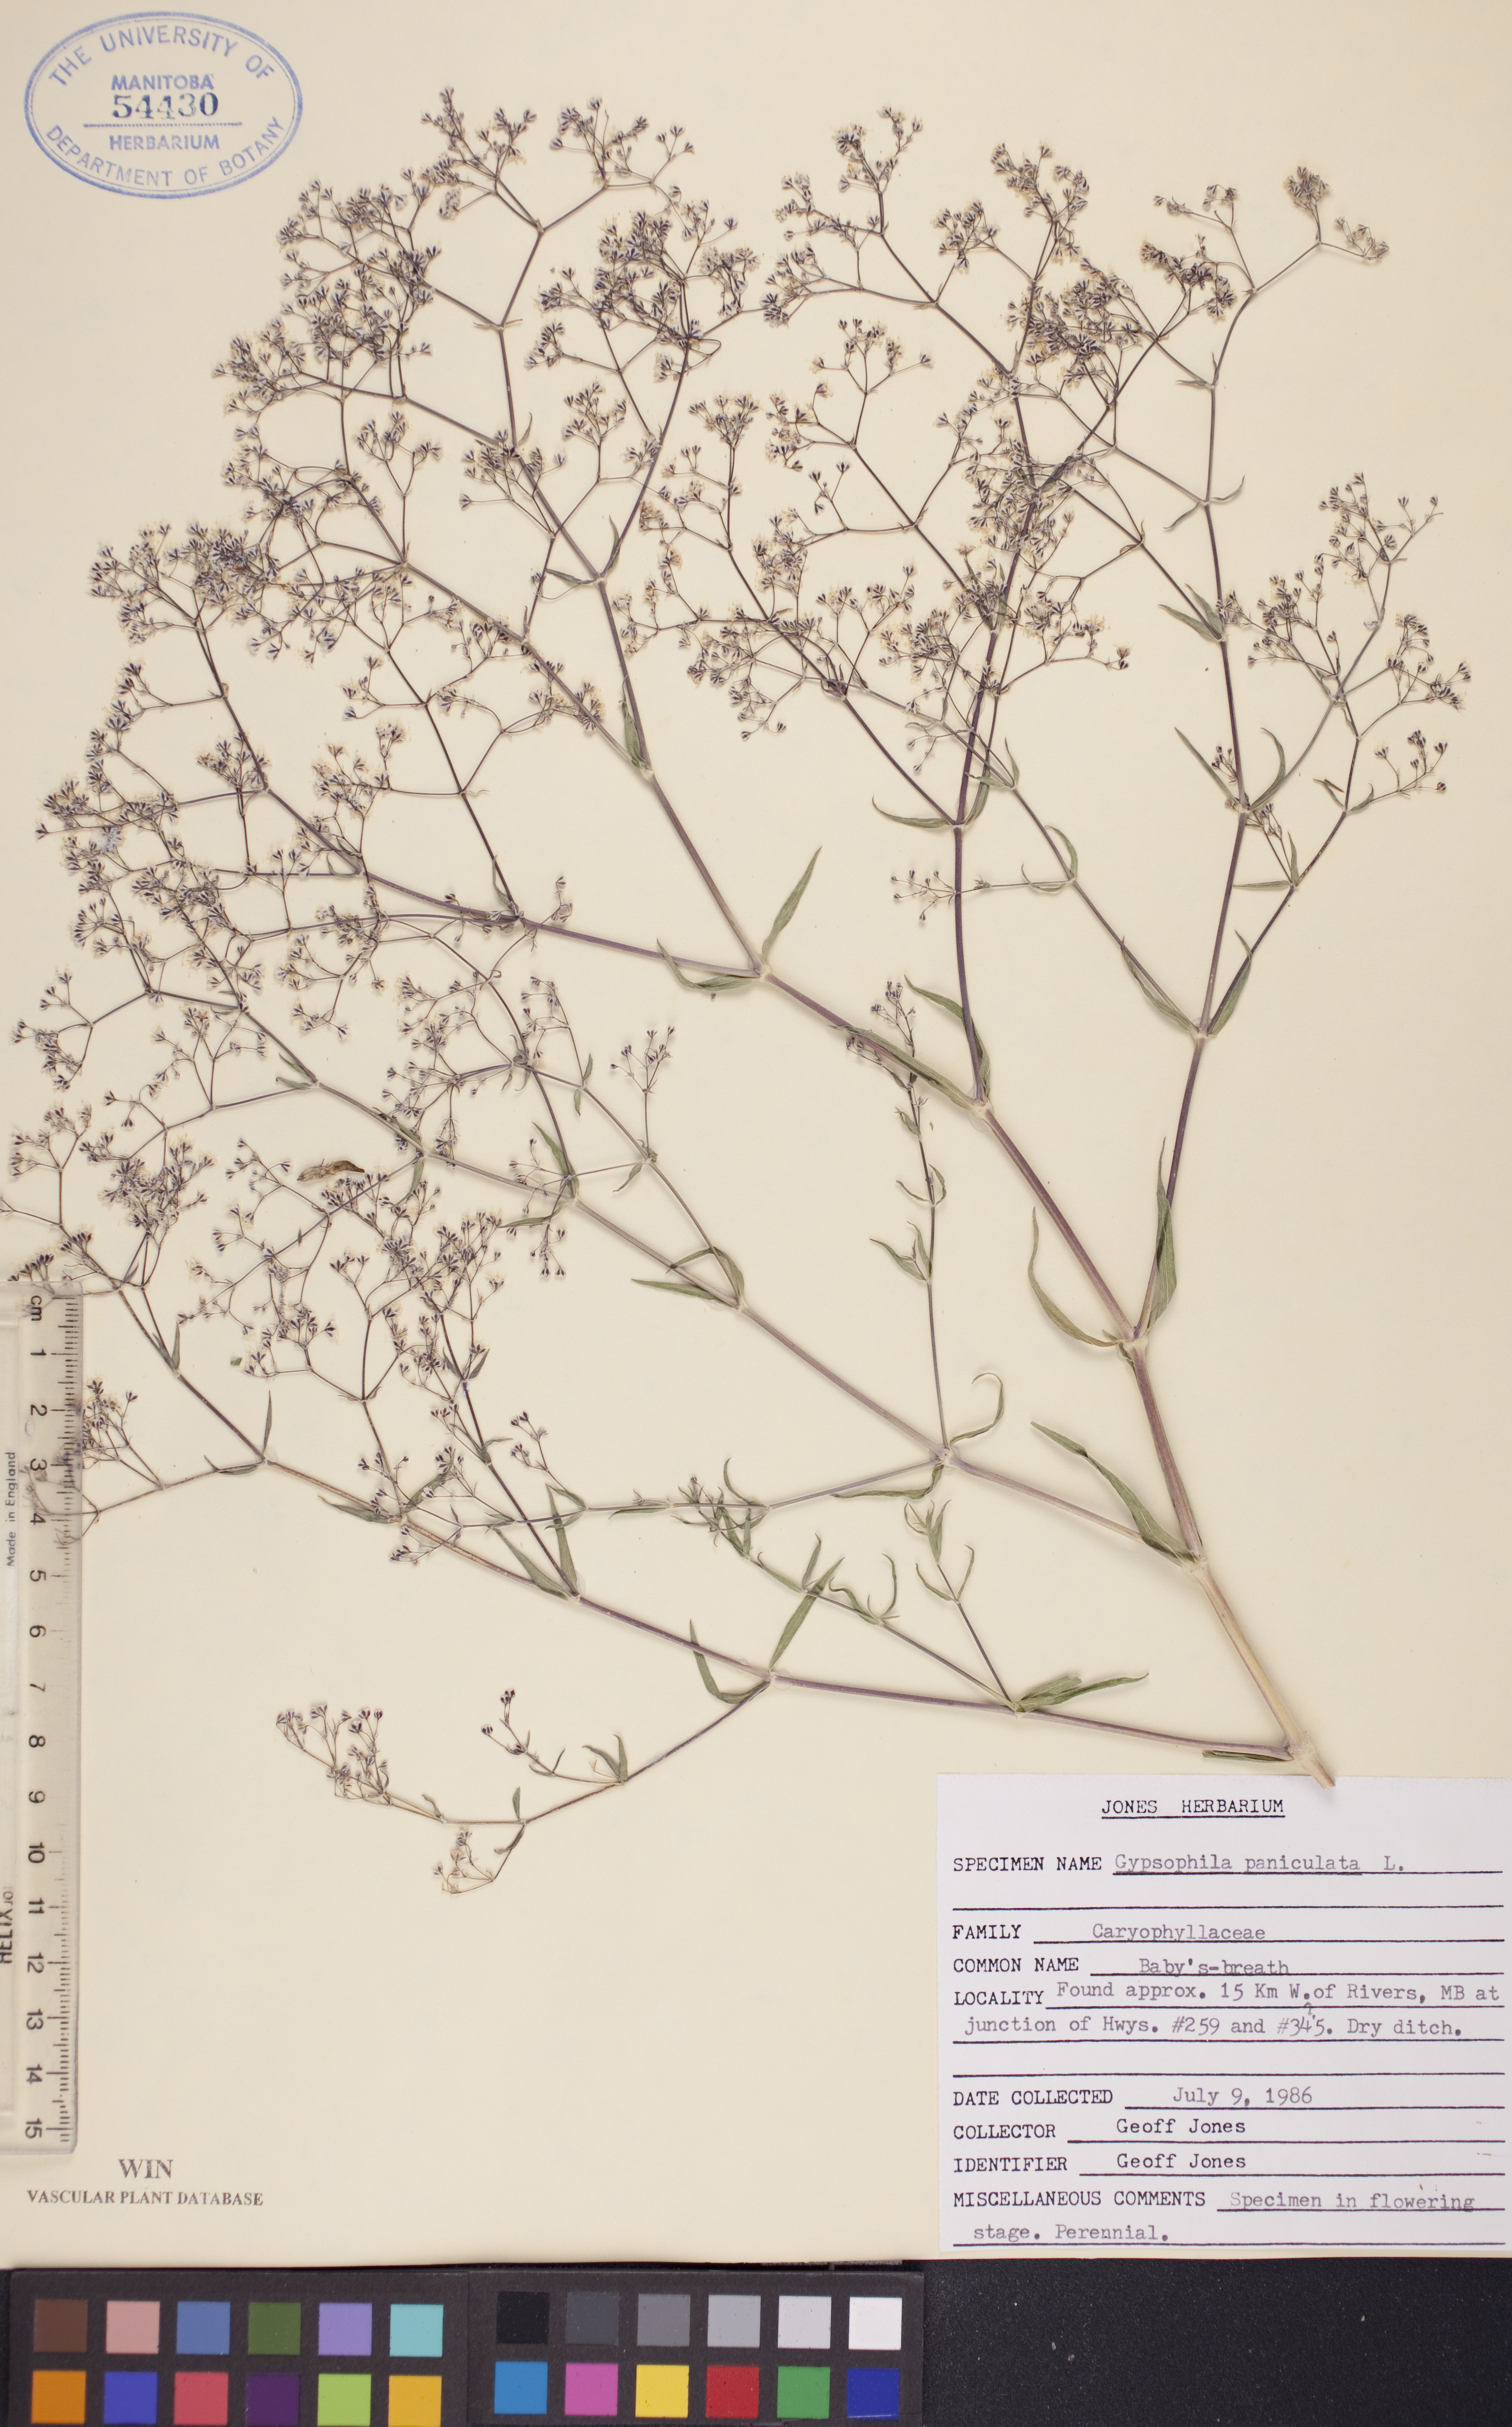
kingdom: Plantae
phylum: Tracheophyta
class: Magnoliopsida
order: Caryophyllales
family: Caryophyllaceae
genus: Gypsophila
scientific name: Gypsophila paniculata
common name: Baby's-breath
